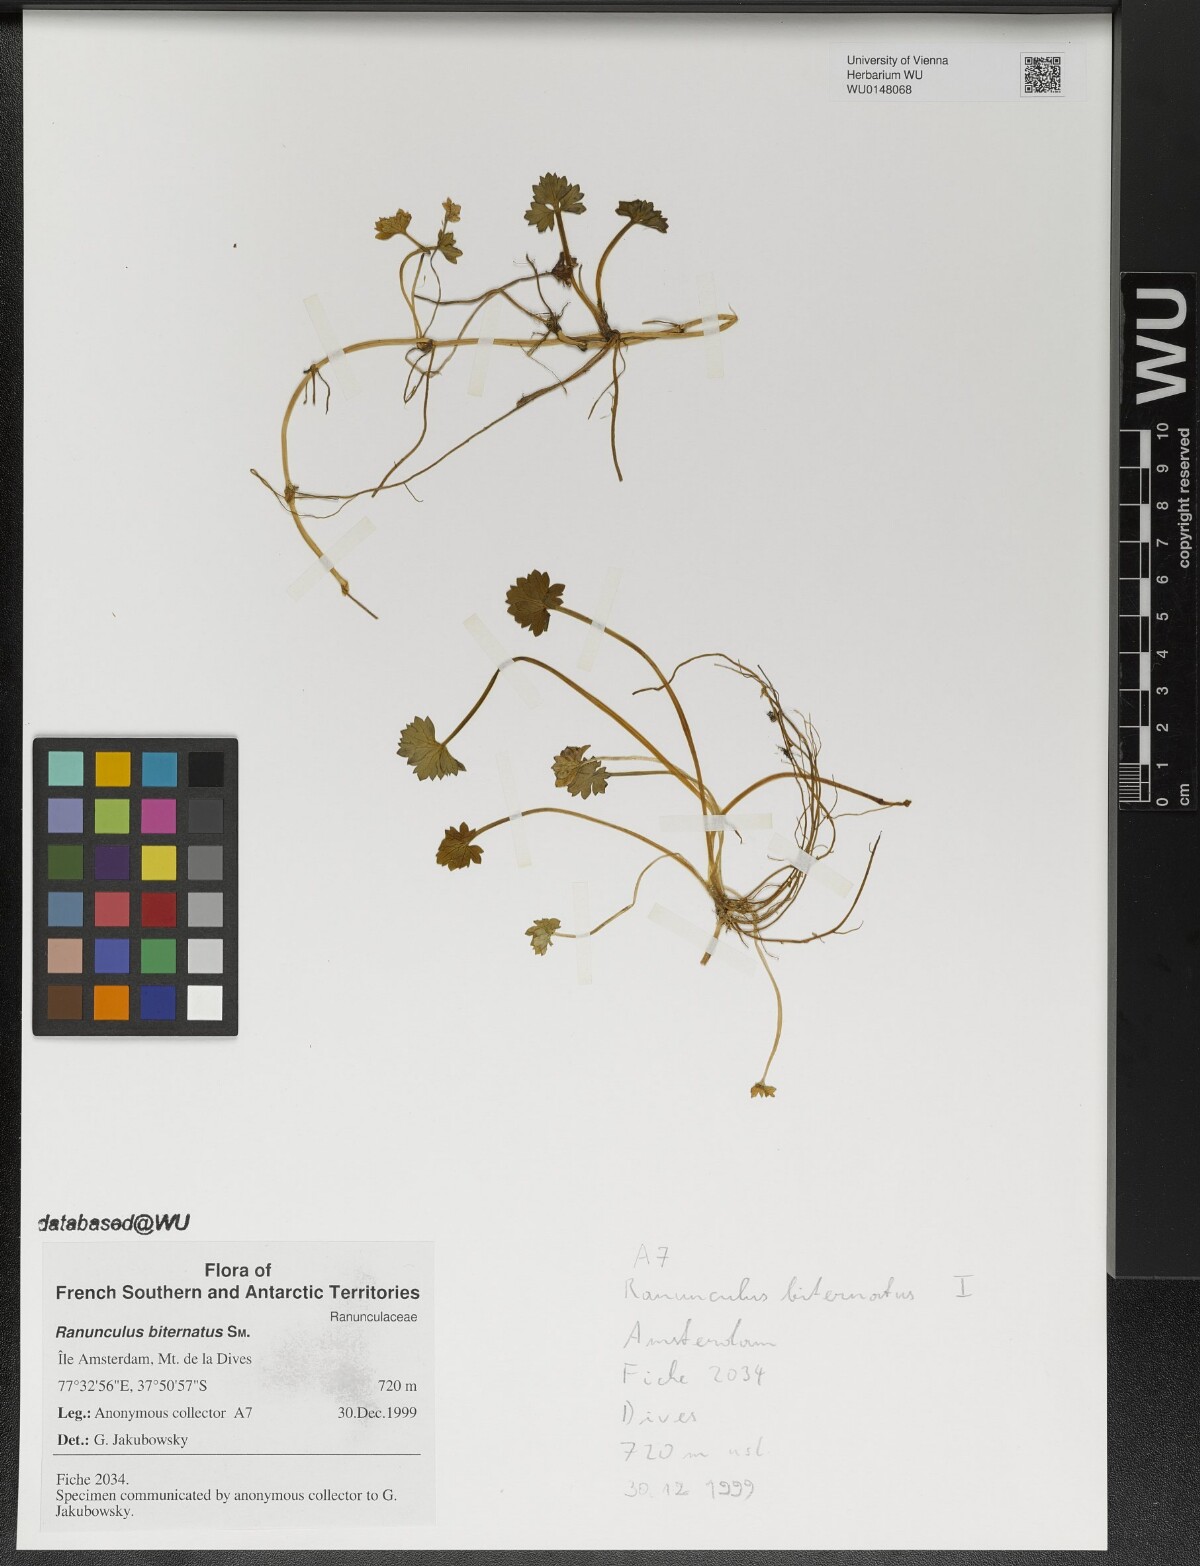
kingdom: Plantae
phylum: Tracheophyta
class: Magnoliopsida
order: Ranunculales
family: Ranunculaceae
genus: Ranunculus
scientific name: Ranunculus biternatus
